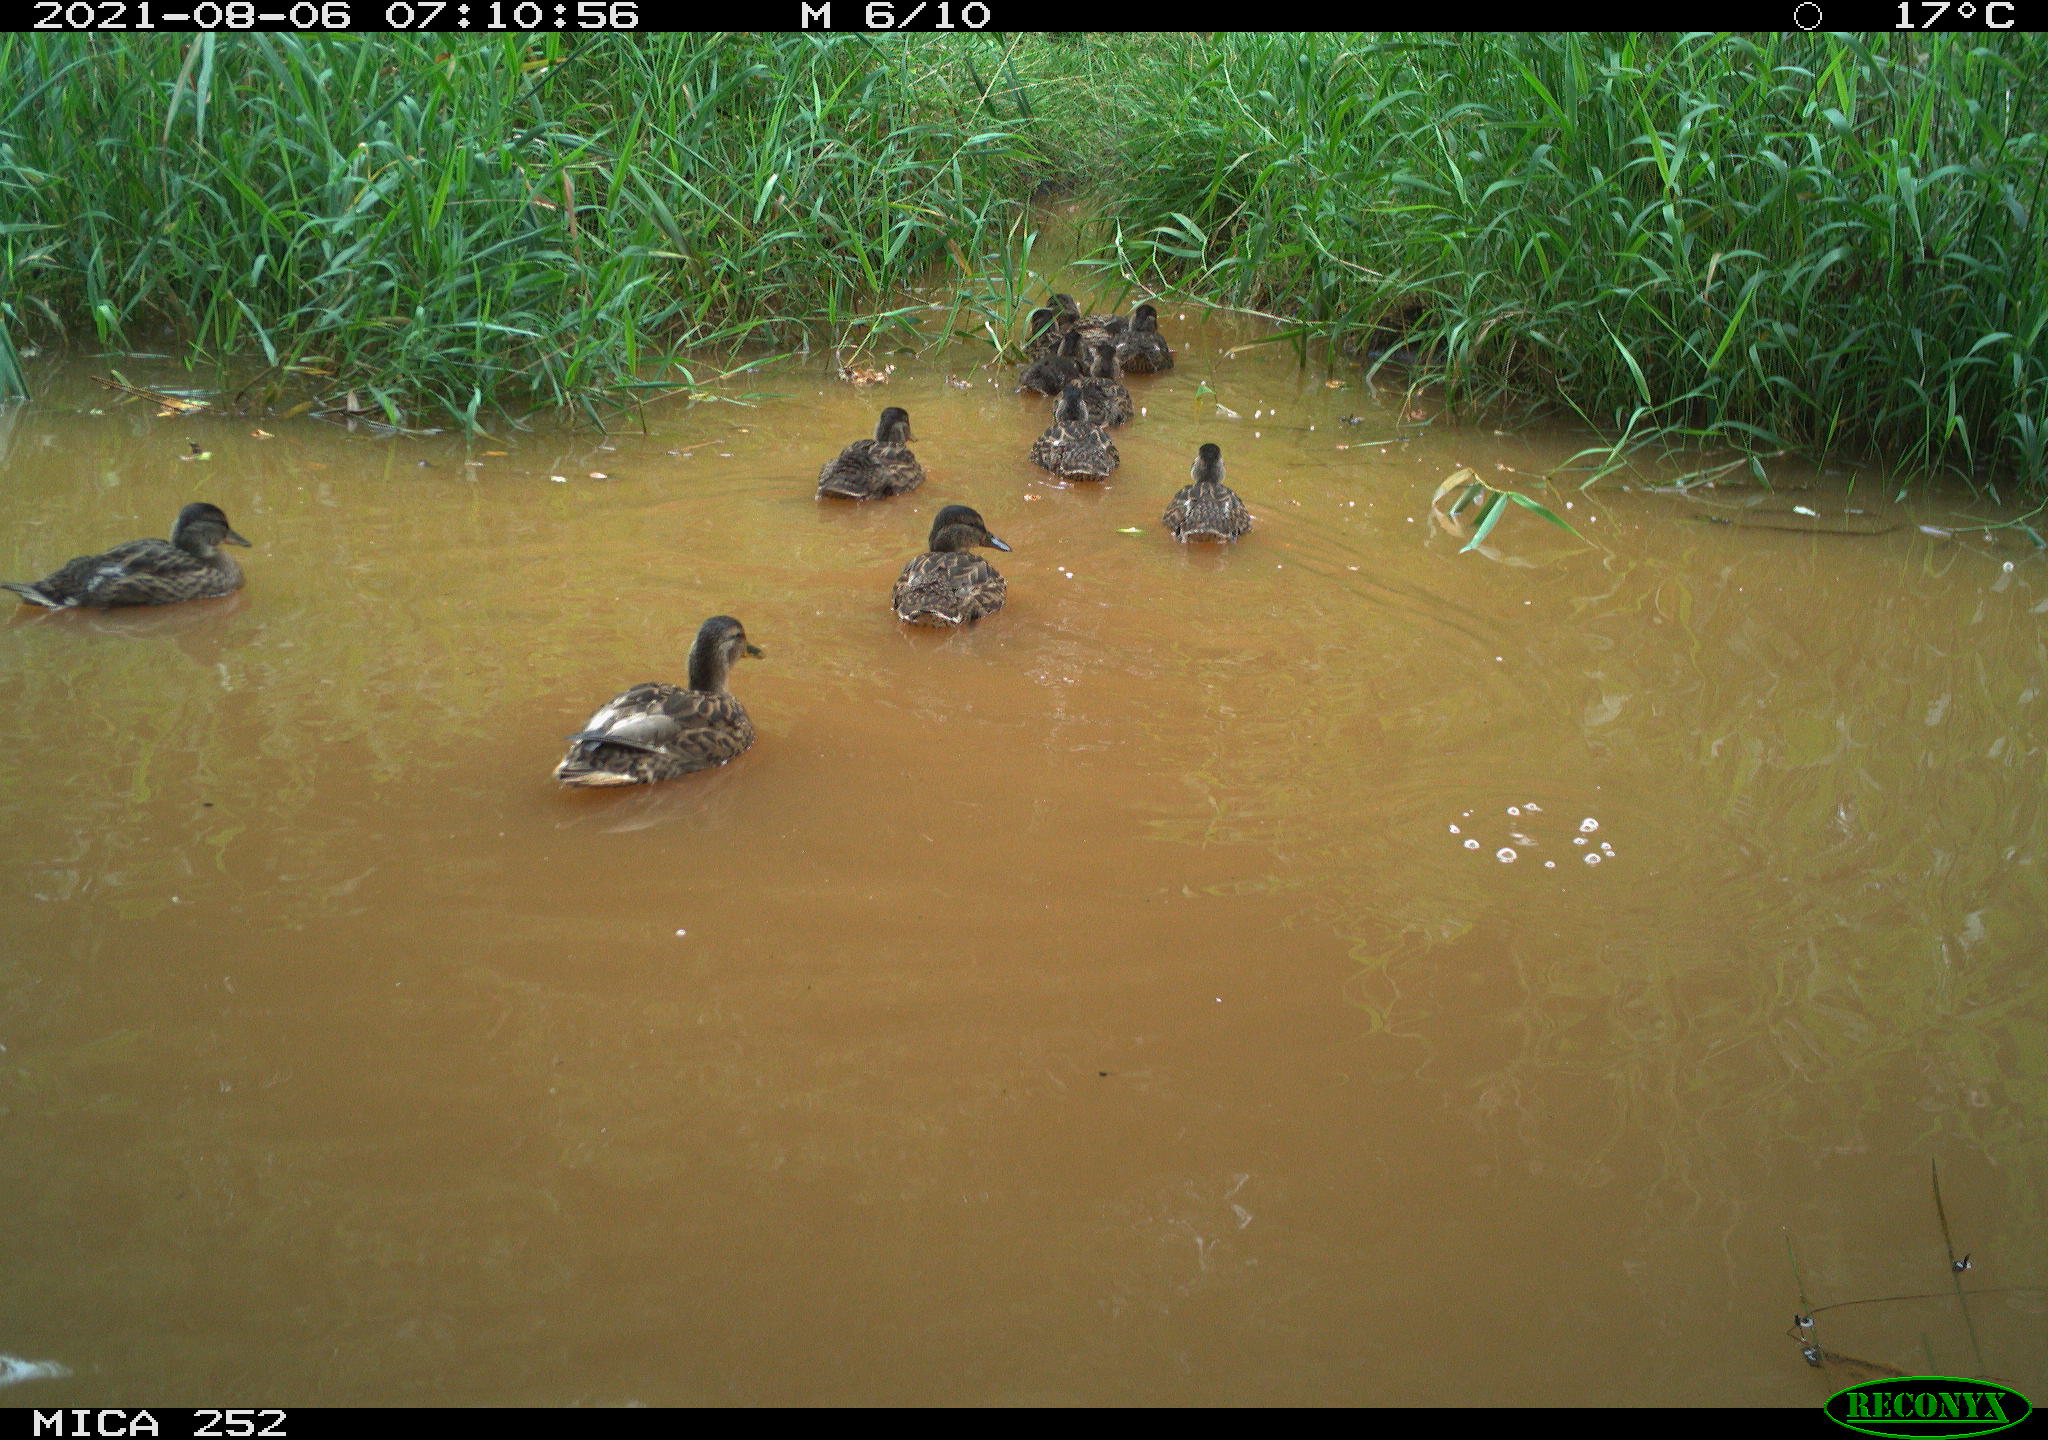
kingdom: Animalia
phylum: Chordata
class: Aves
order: Anseriformes
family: Anatidae
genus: Anas
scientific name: Anas platyrhynchos
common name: Mallard
